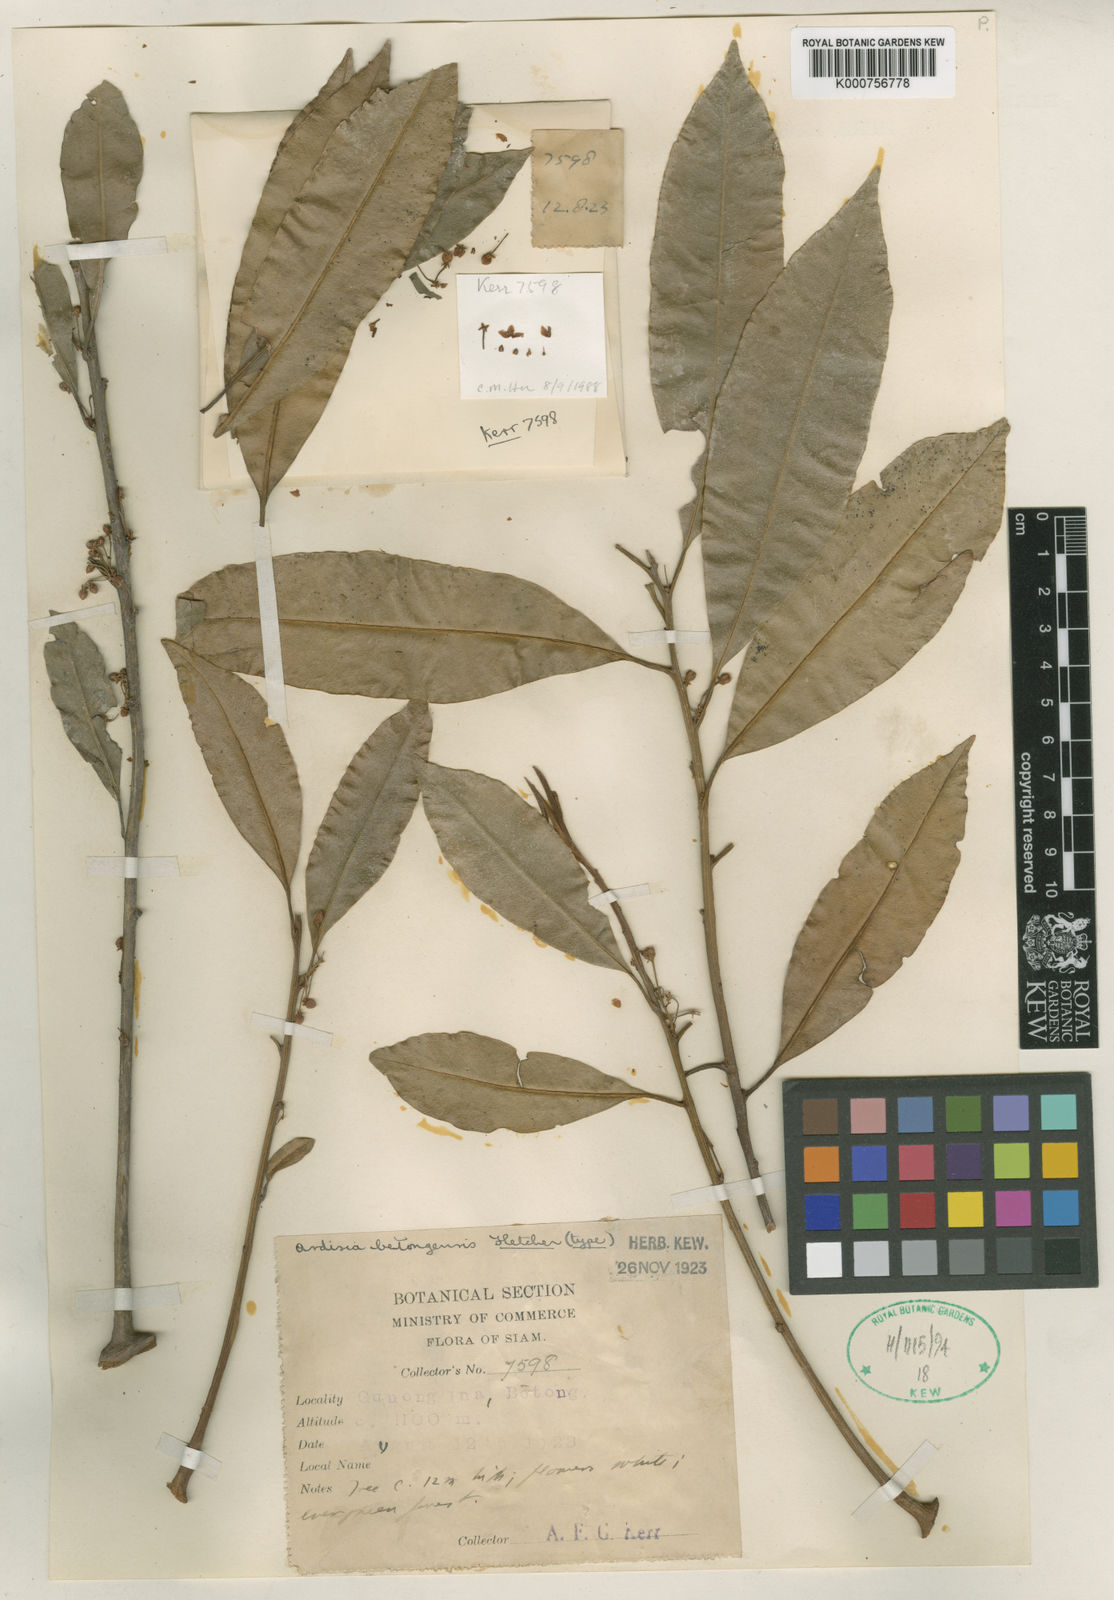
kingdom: Plantae
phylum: Tracheophyta
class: Magnoliopsida
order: Ericales
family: Primulaceae
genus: Ardisia
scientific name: Ardisia betongensis
